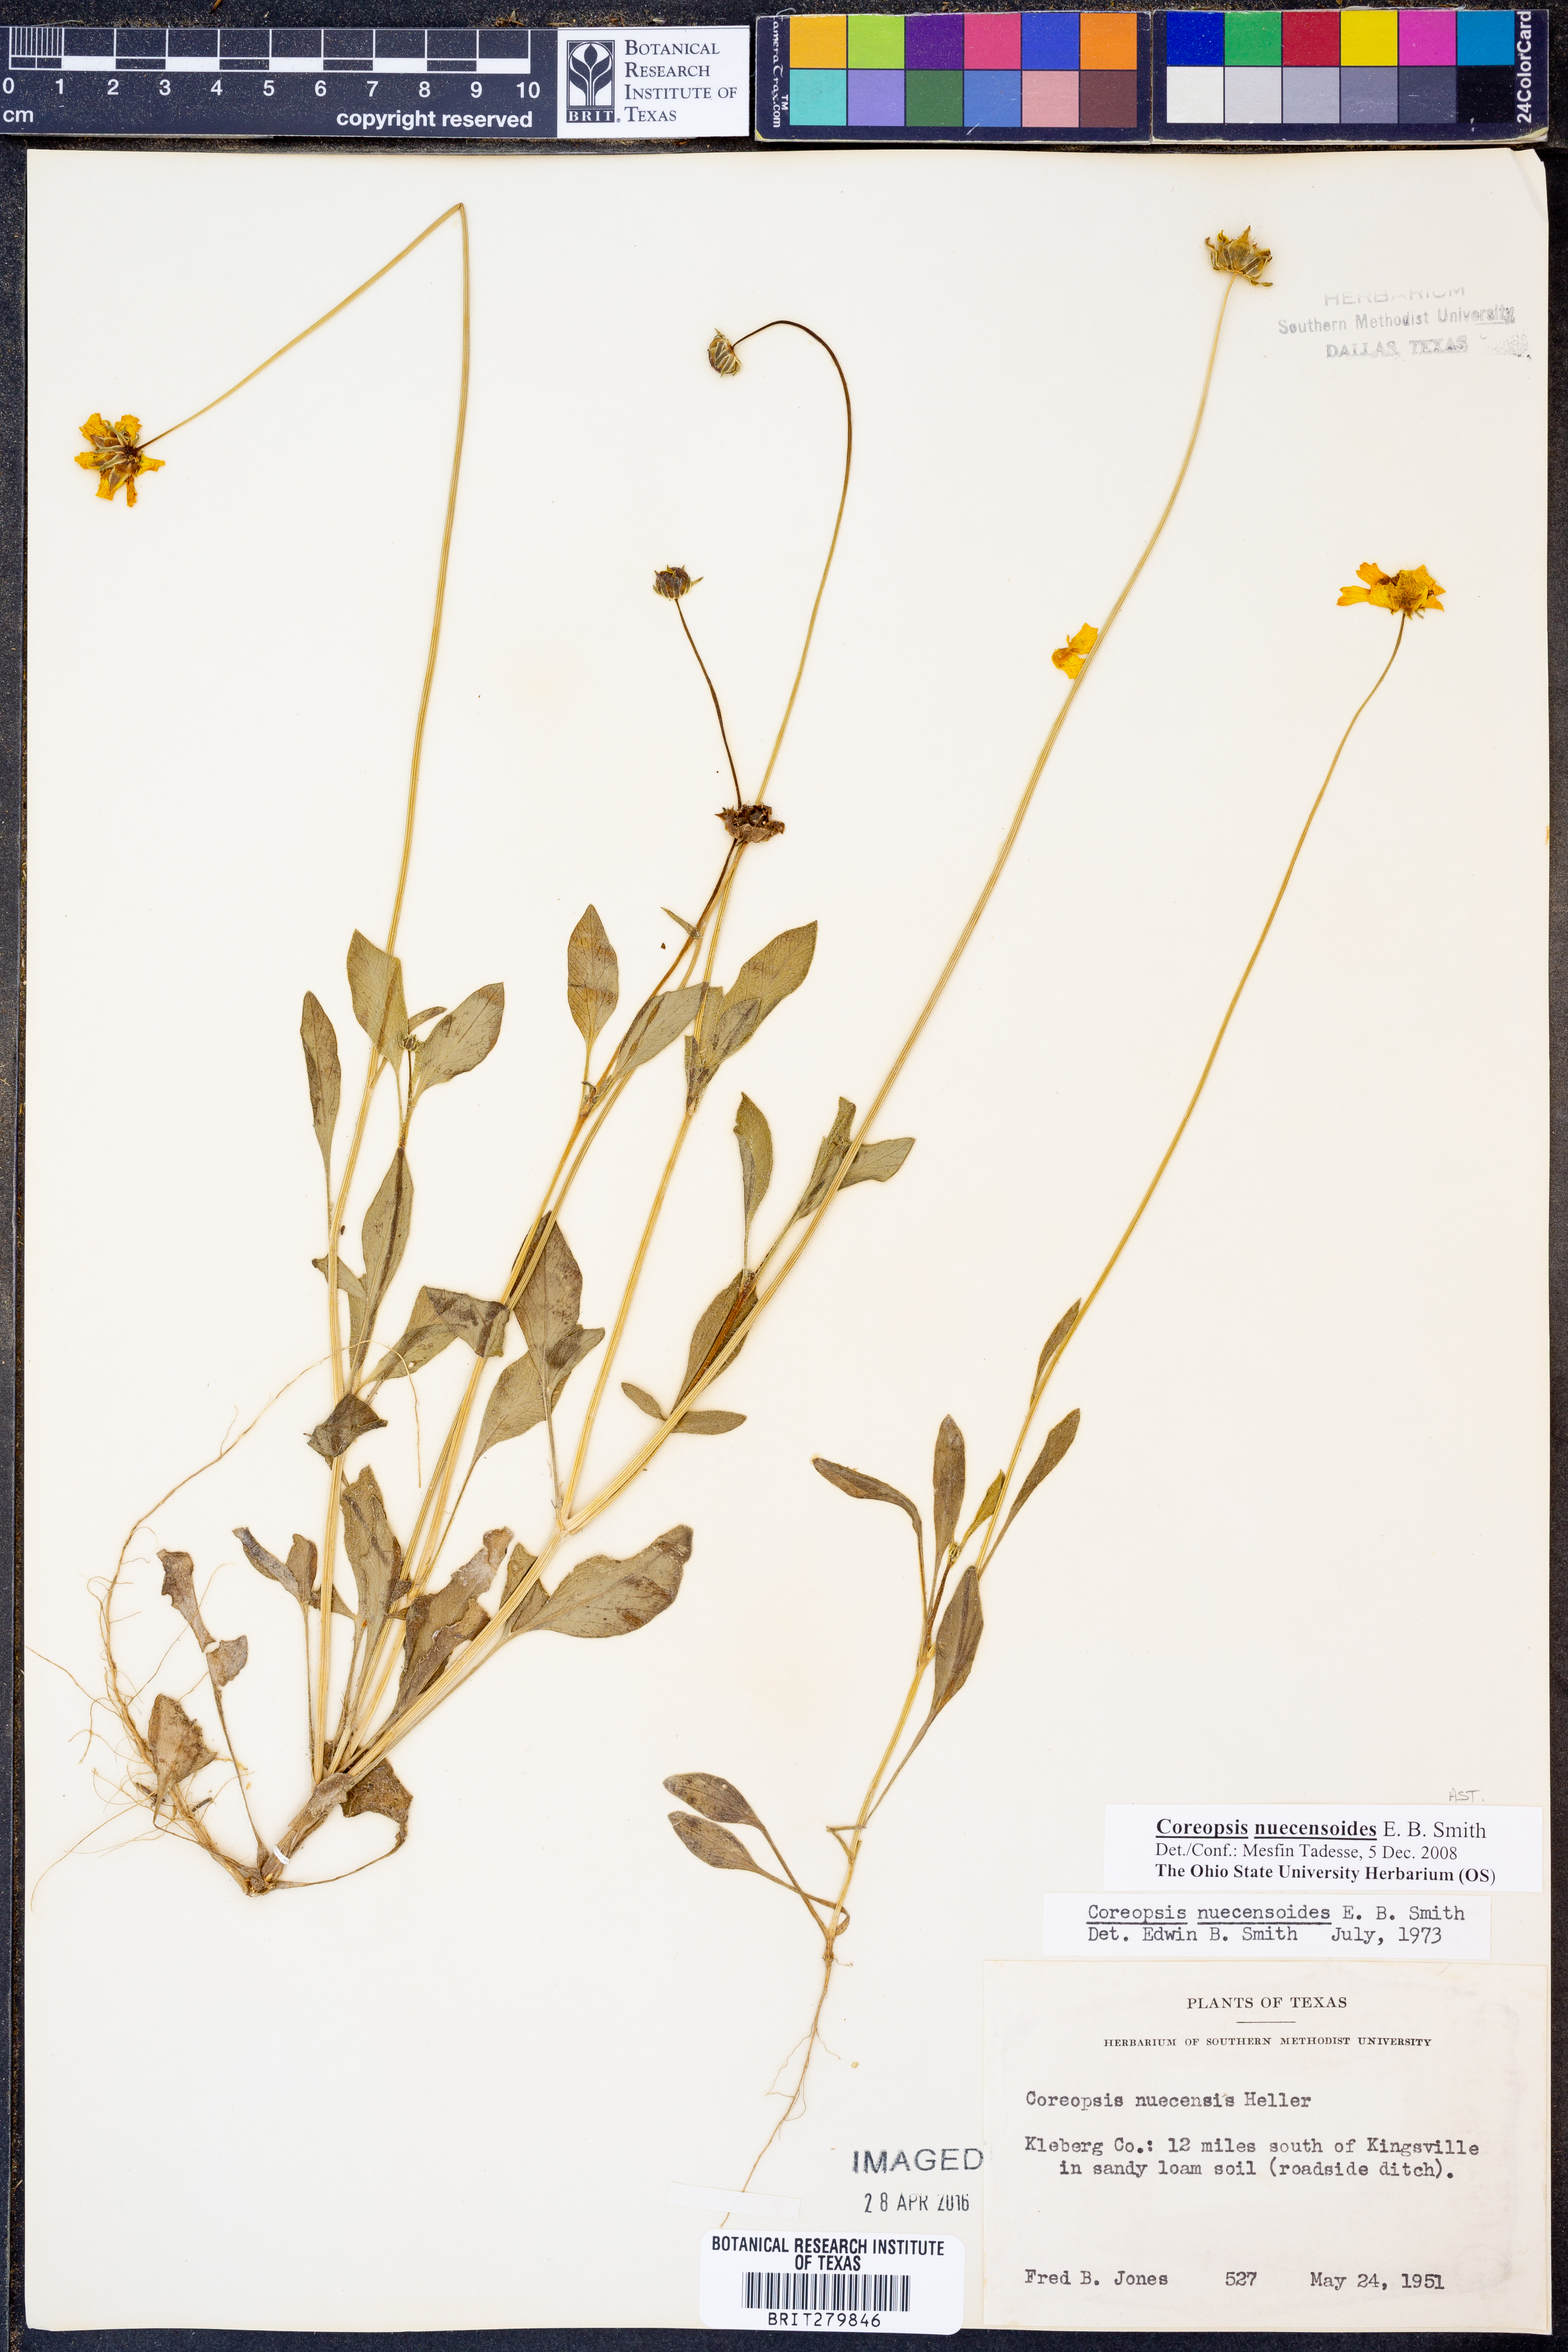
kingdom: Plantae
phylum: Tracheophyta
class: Magnoliopsida
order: Asterales
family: Asteraceae
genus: Coreopsis
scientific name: Coreopsis nuecensis
